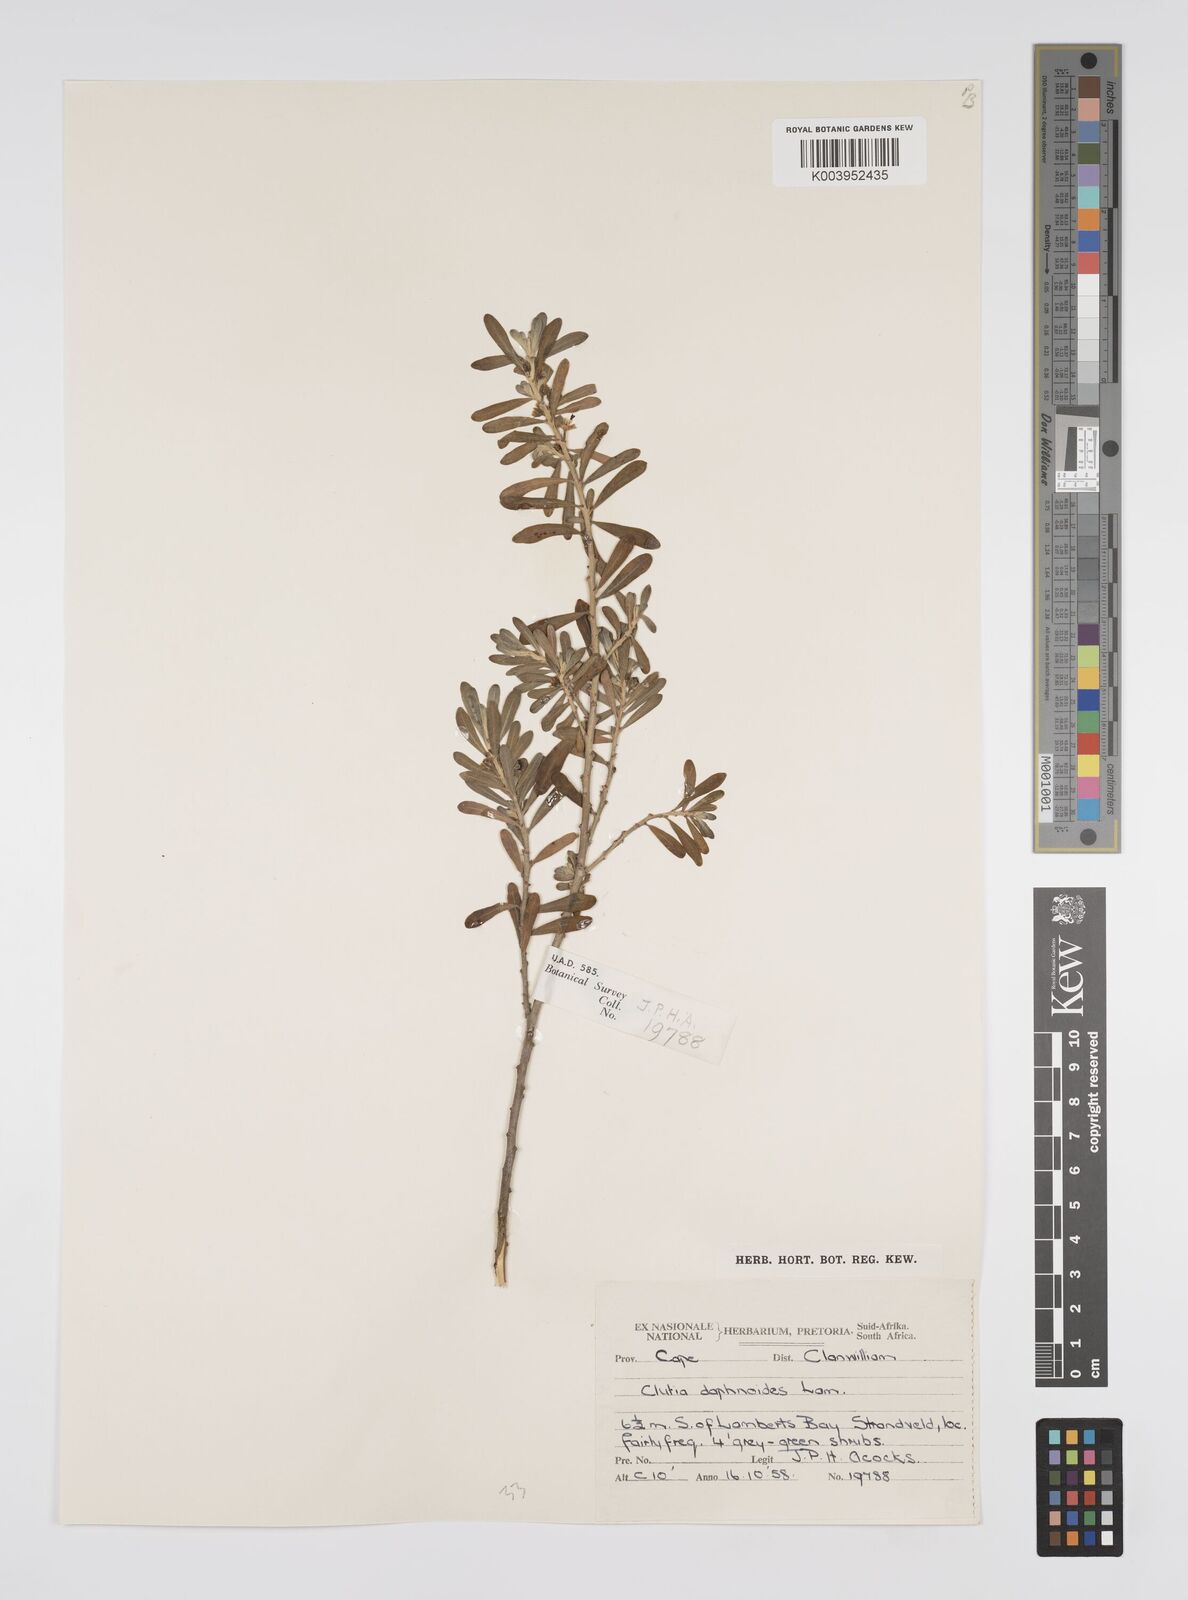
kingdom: Plantae
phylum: Tracheophyta
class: Magnoliopsida
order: Malpighiales
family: Peraceae
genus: Clutia
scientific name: Clutia daphnoides
